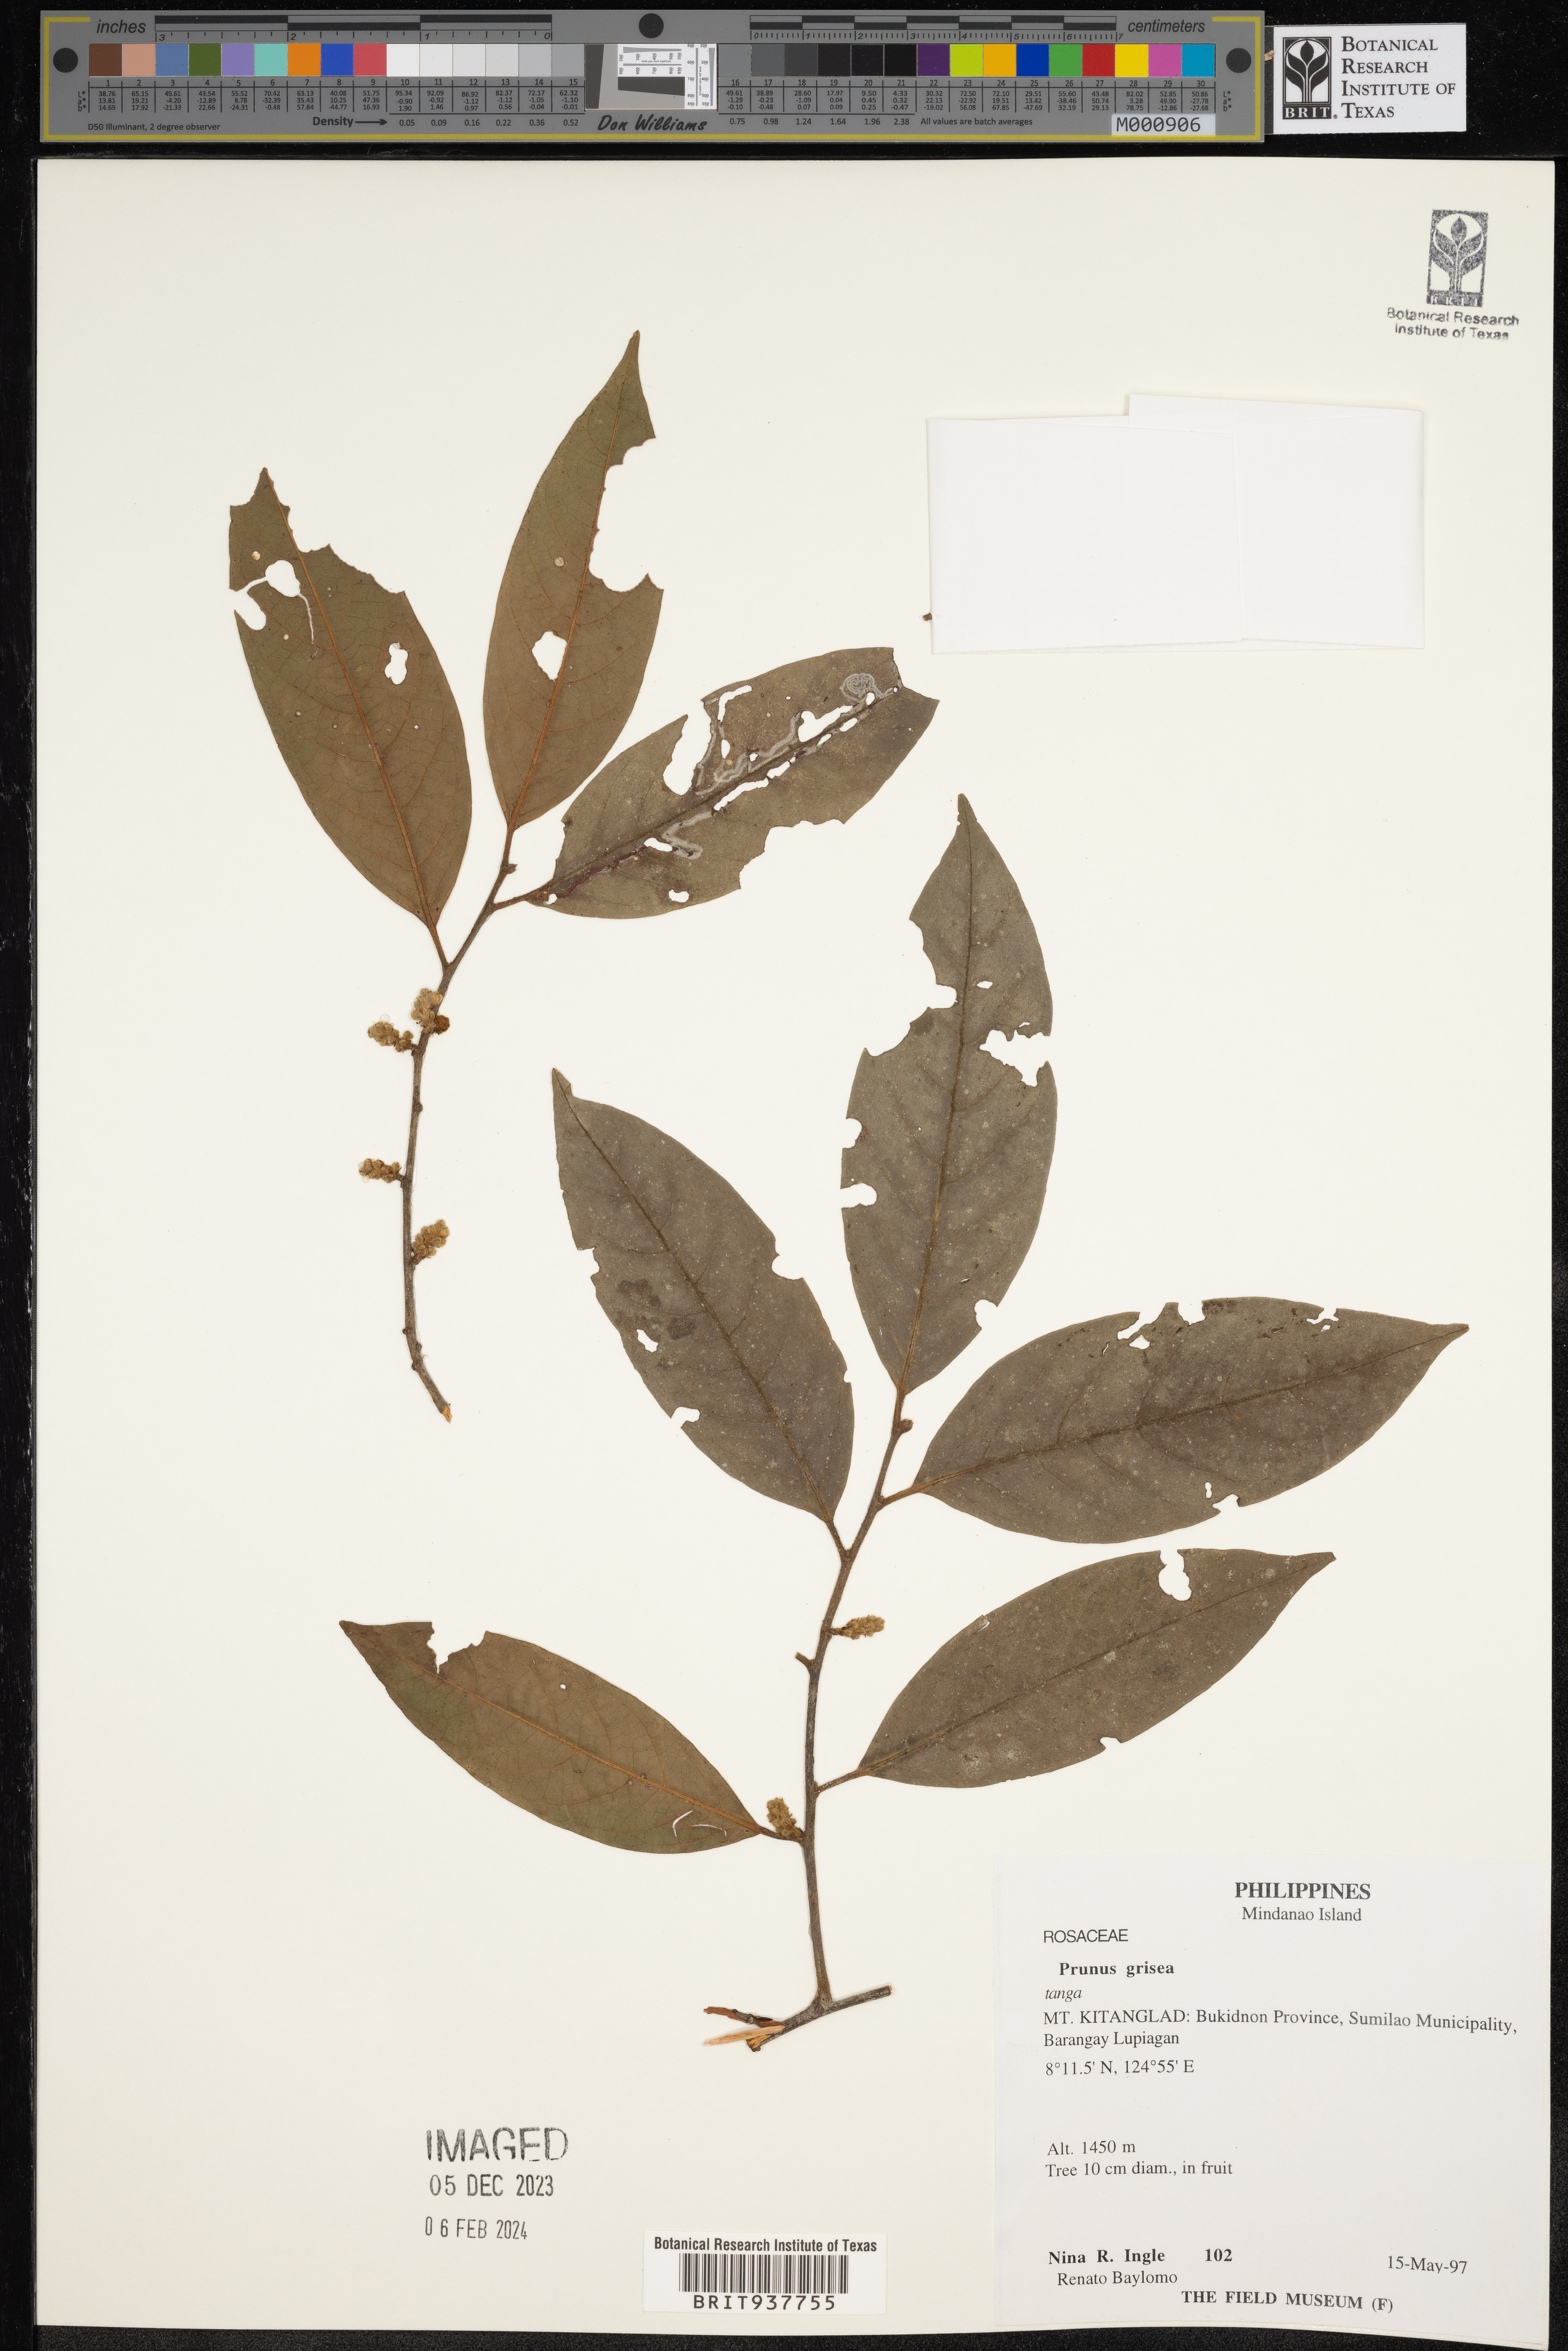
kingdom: Plantae
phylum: Tracheophyta
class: Magnoliopsida
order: Rosales
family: Rosaceae
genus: Prunus
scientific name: Prunus
